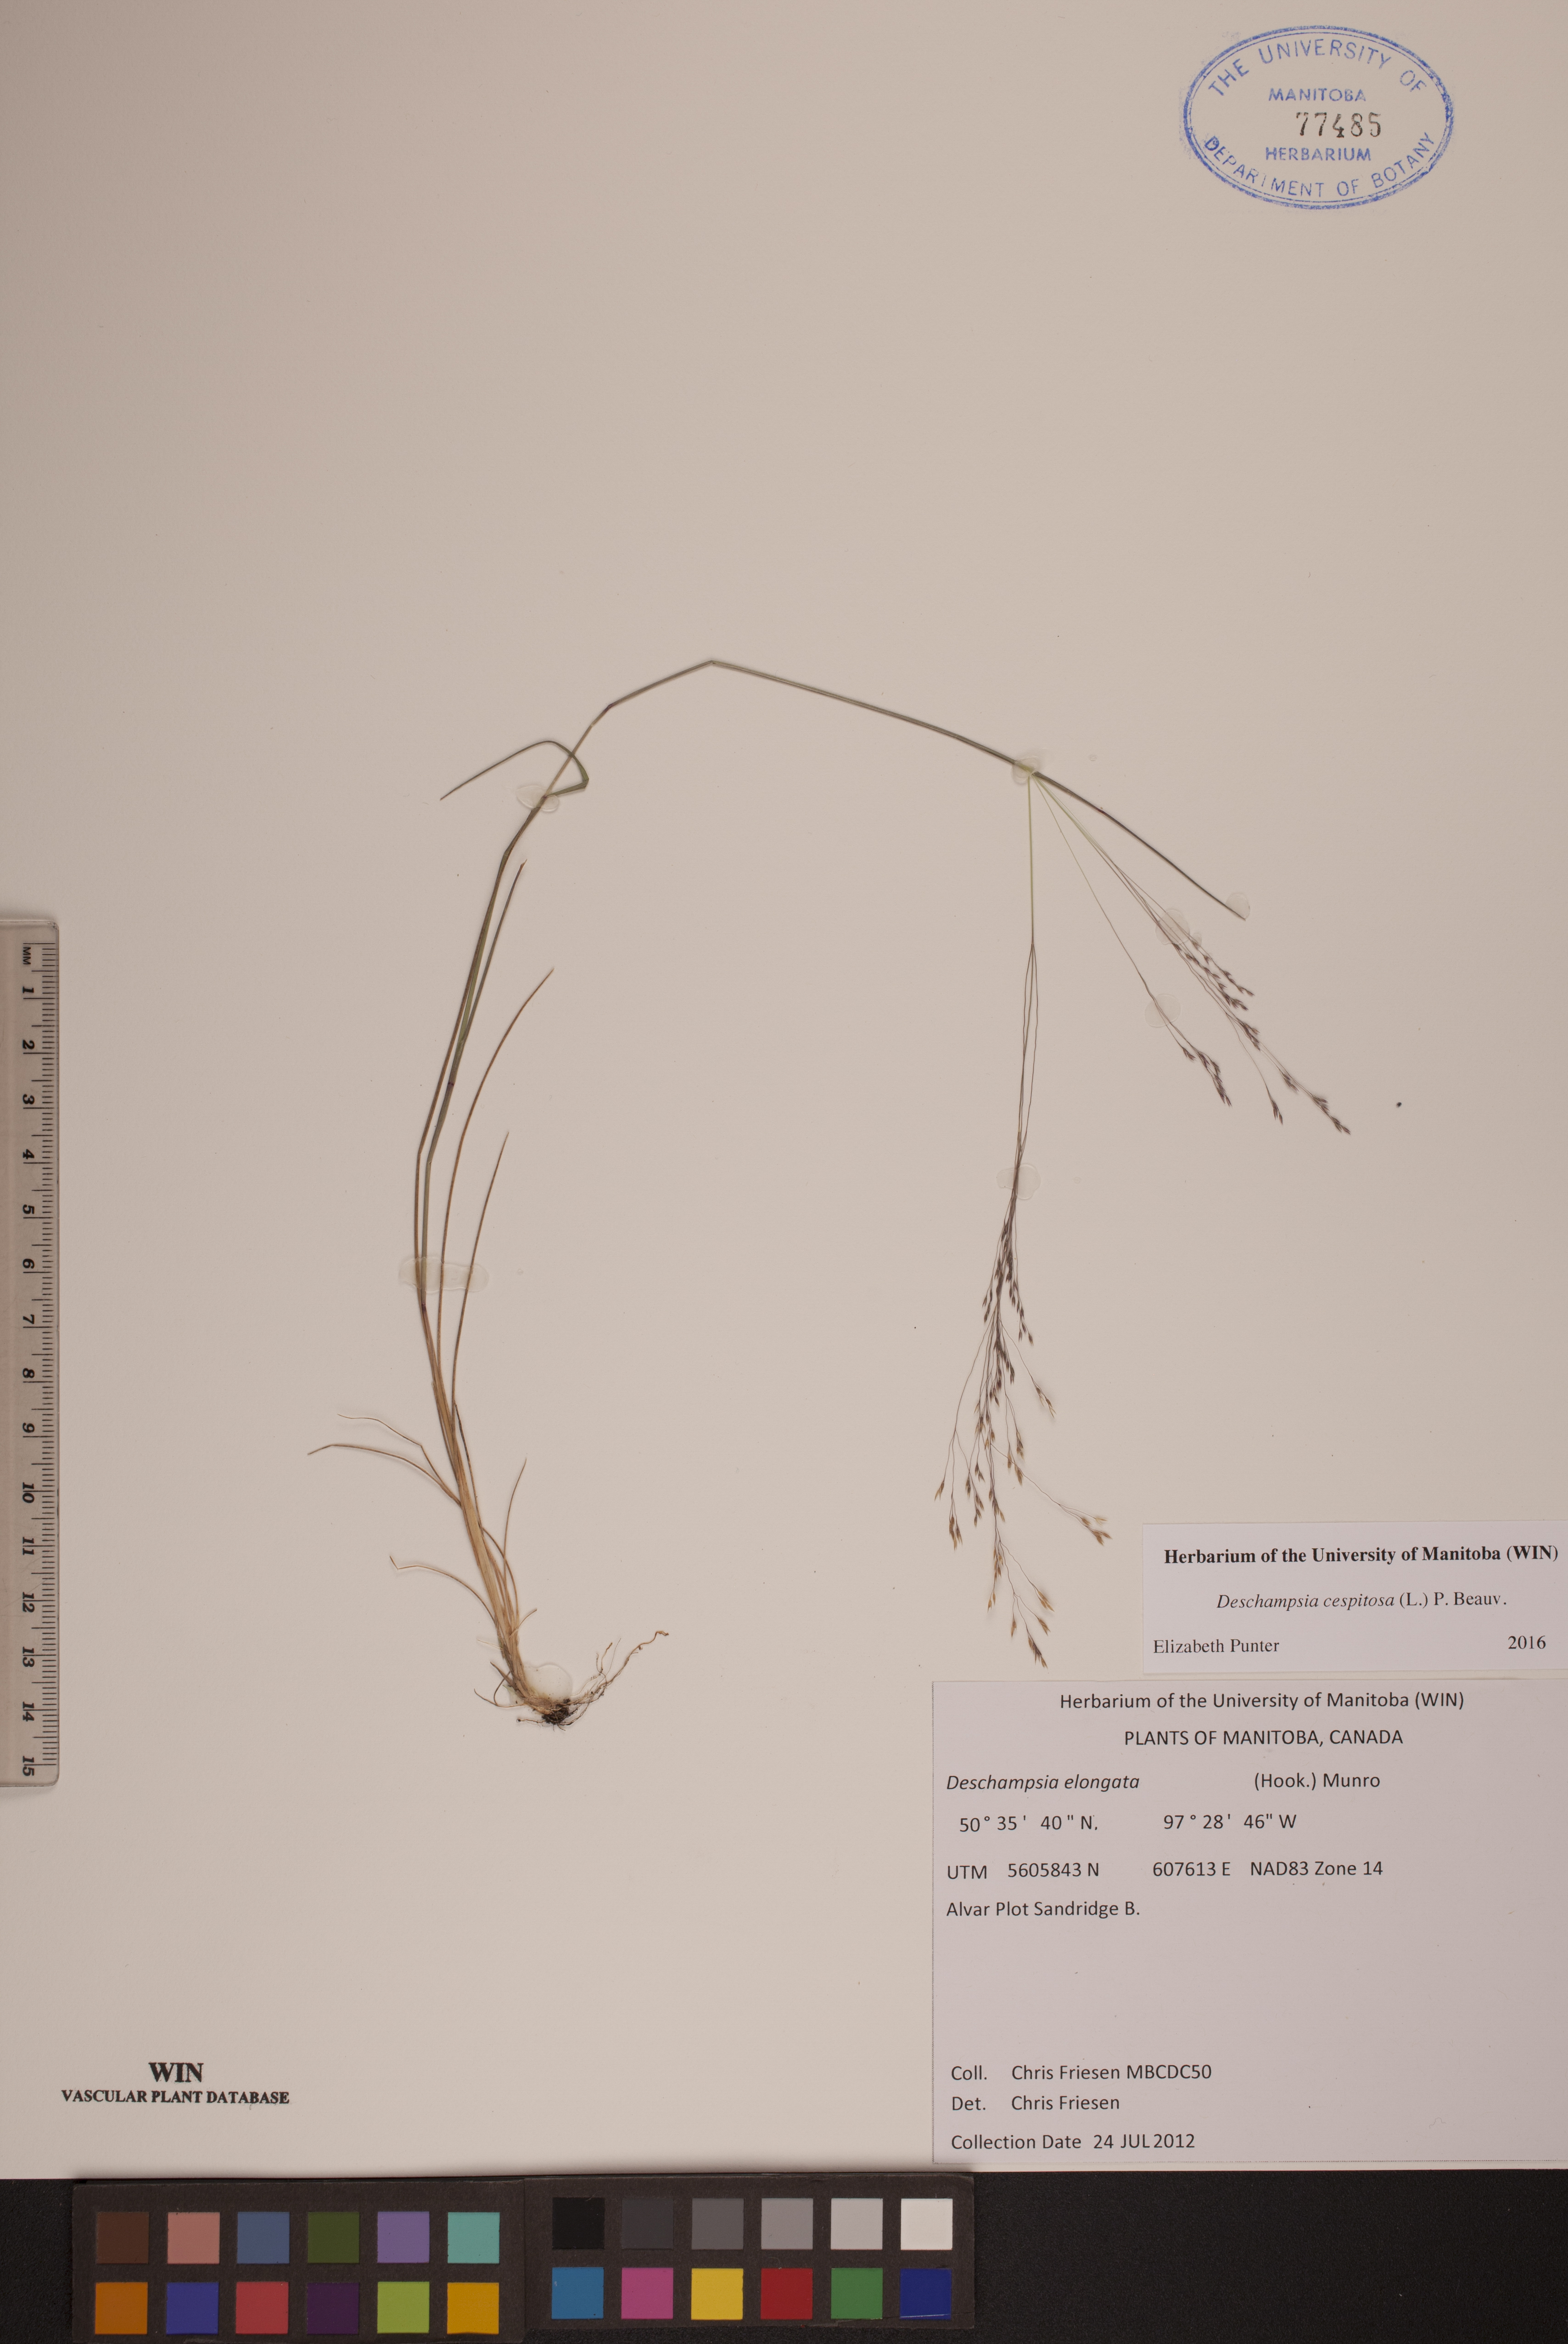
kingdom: Plantae
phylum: Tracheophyta
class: Liliopsida
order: Poales
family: Poaceae
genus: Deschampsia
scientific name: Deschampsia cespitosa
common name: Tufted hair-grass
